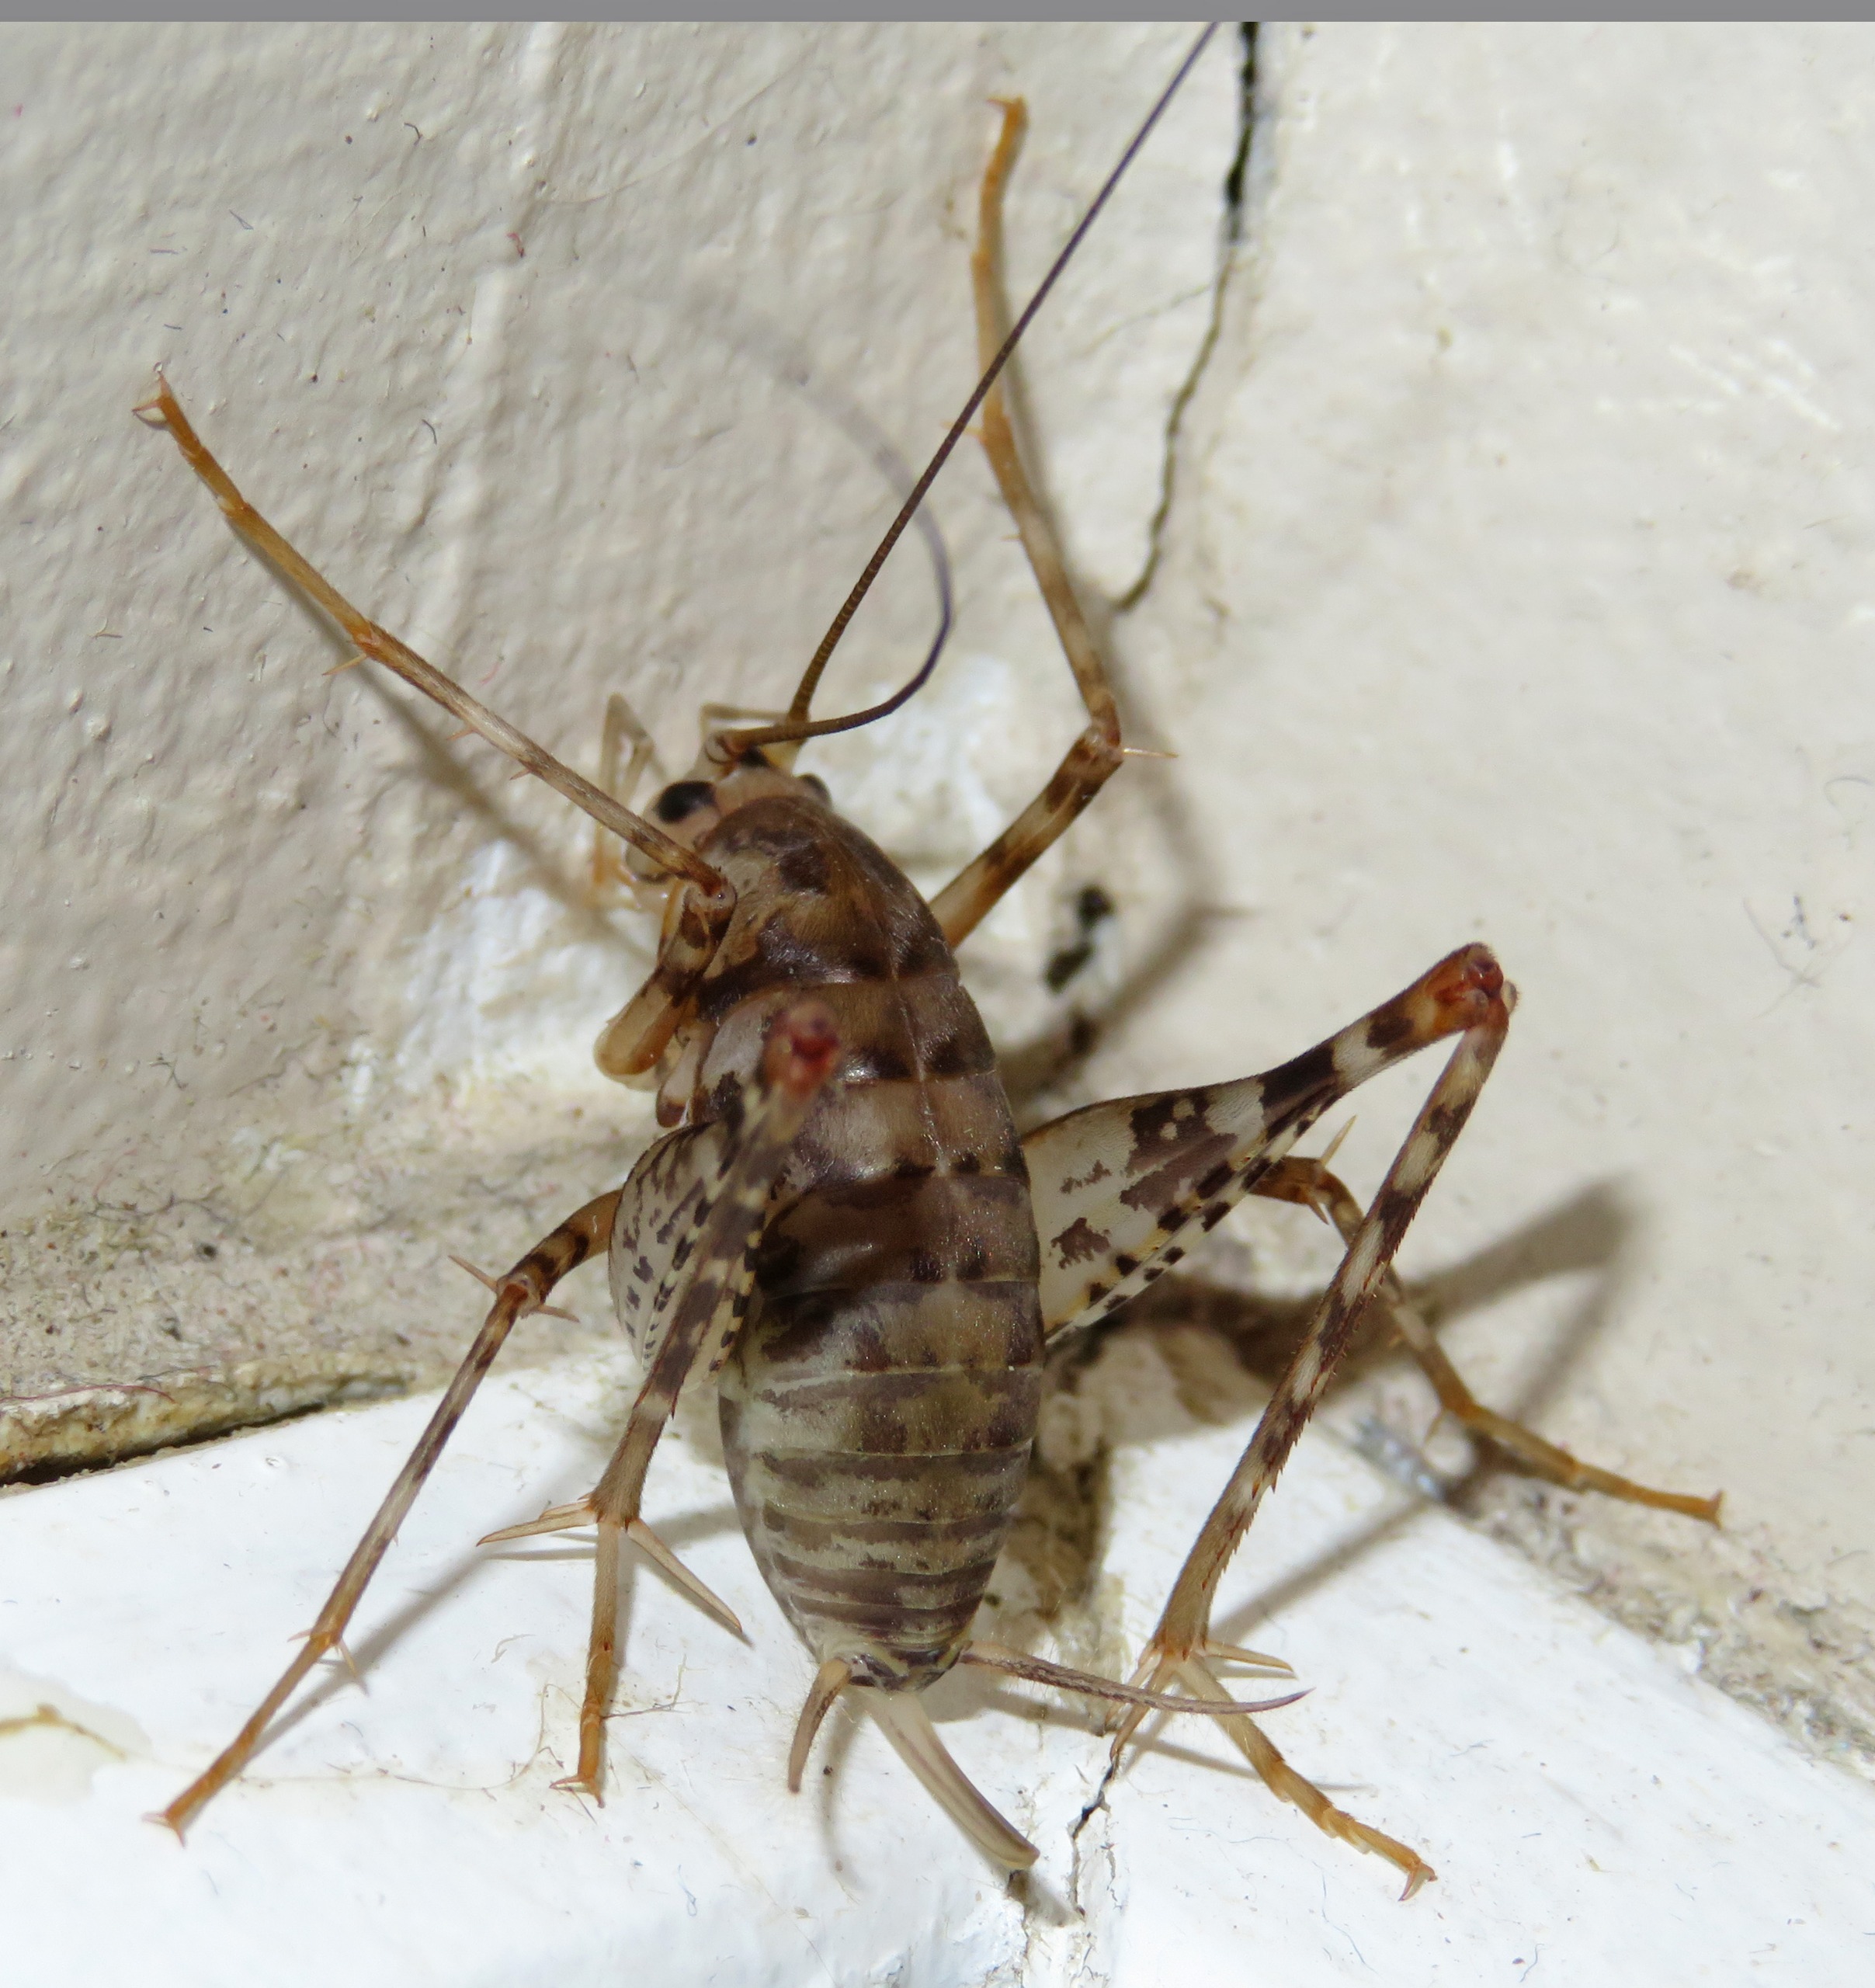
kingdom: Animalia
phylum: Arthropoda
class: Insecta
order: Orthoptera
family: Rhaphidophoridae
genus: Tachycines
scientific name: Tachycines asynamorus
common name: Væksthusgræshoppe
